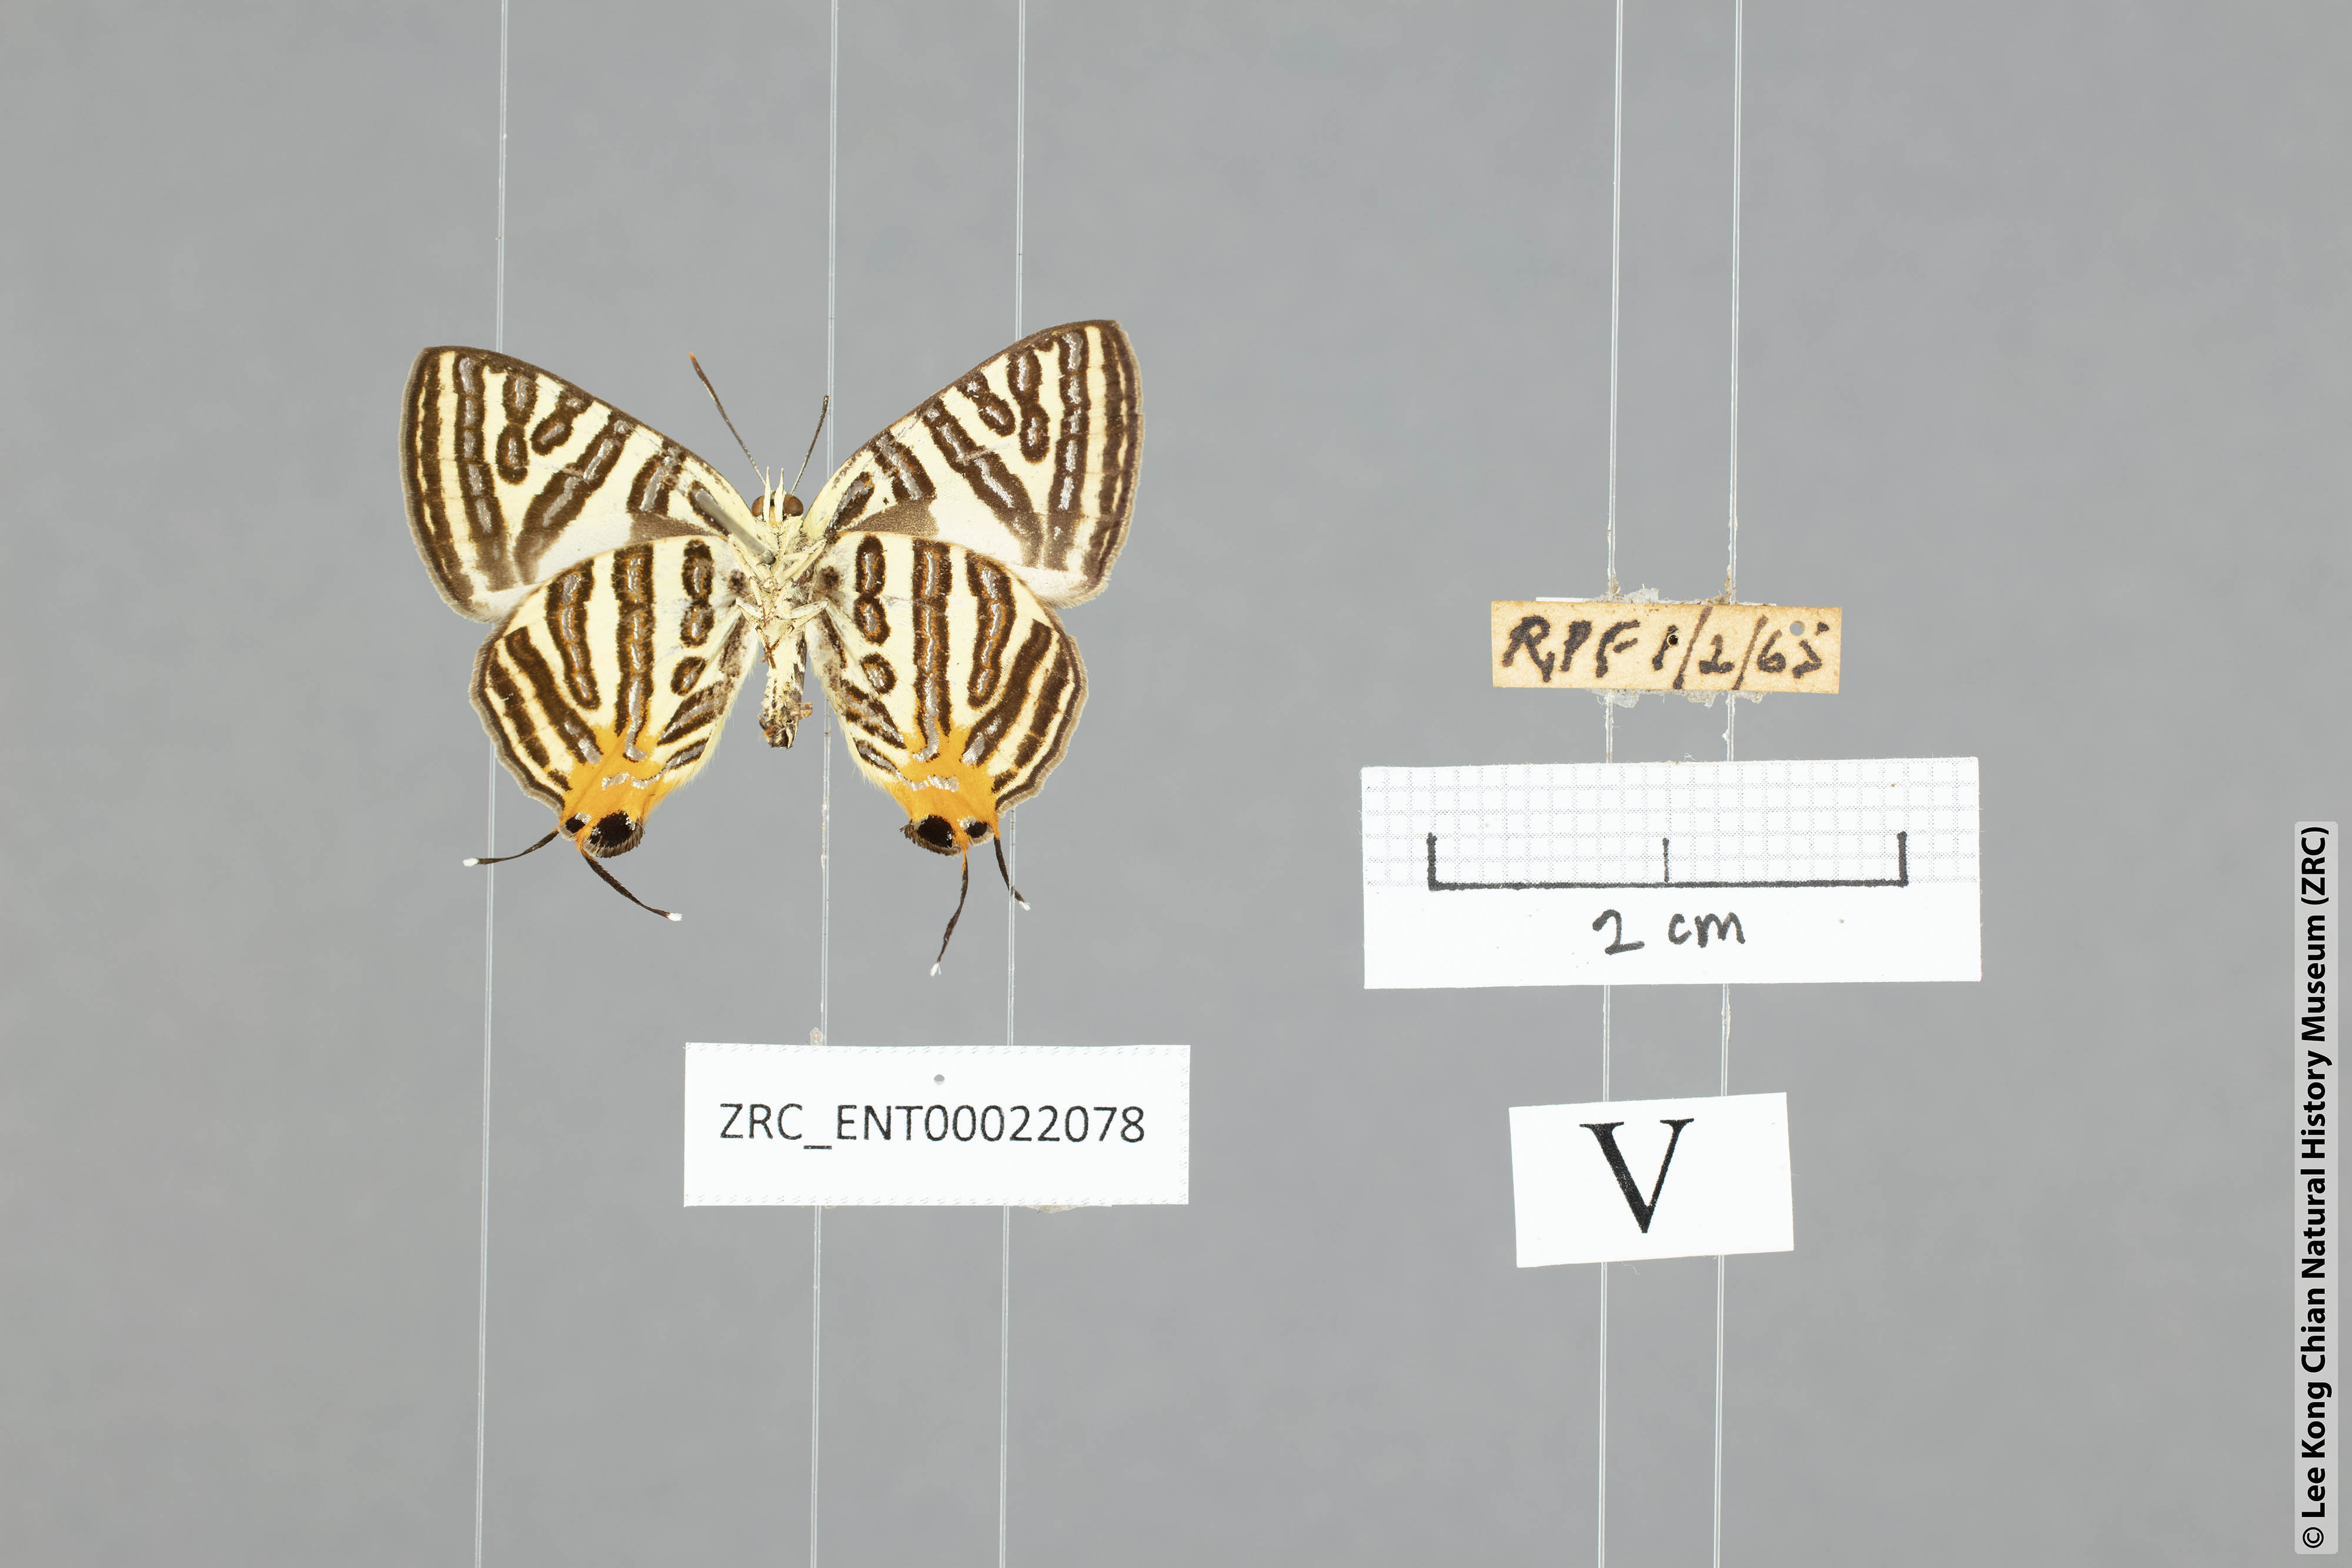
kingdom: Animalia
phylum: Arthropoda
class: Insecta
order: Lepidoptera
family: Lycaenidae
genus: Spindasis
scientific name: Spindasis lohita
